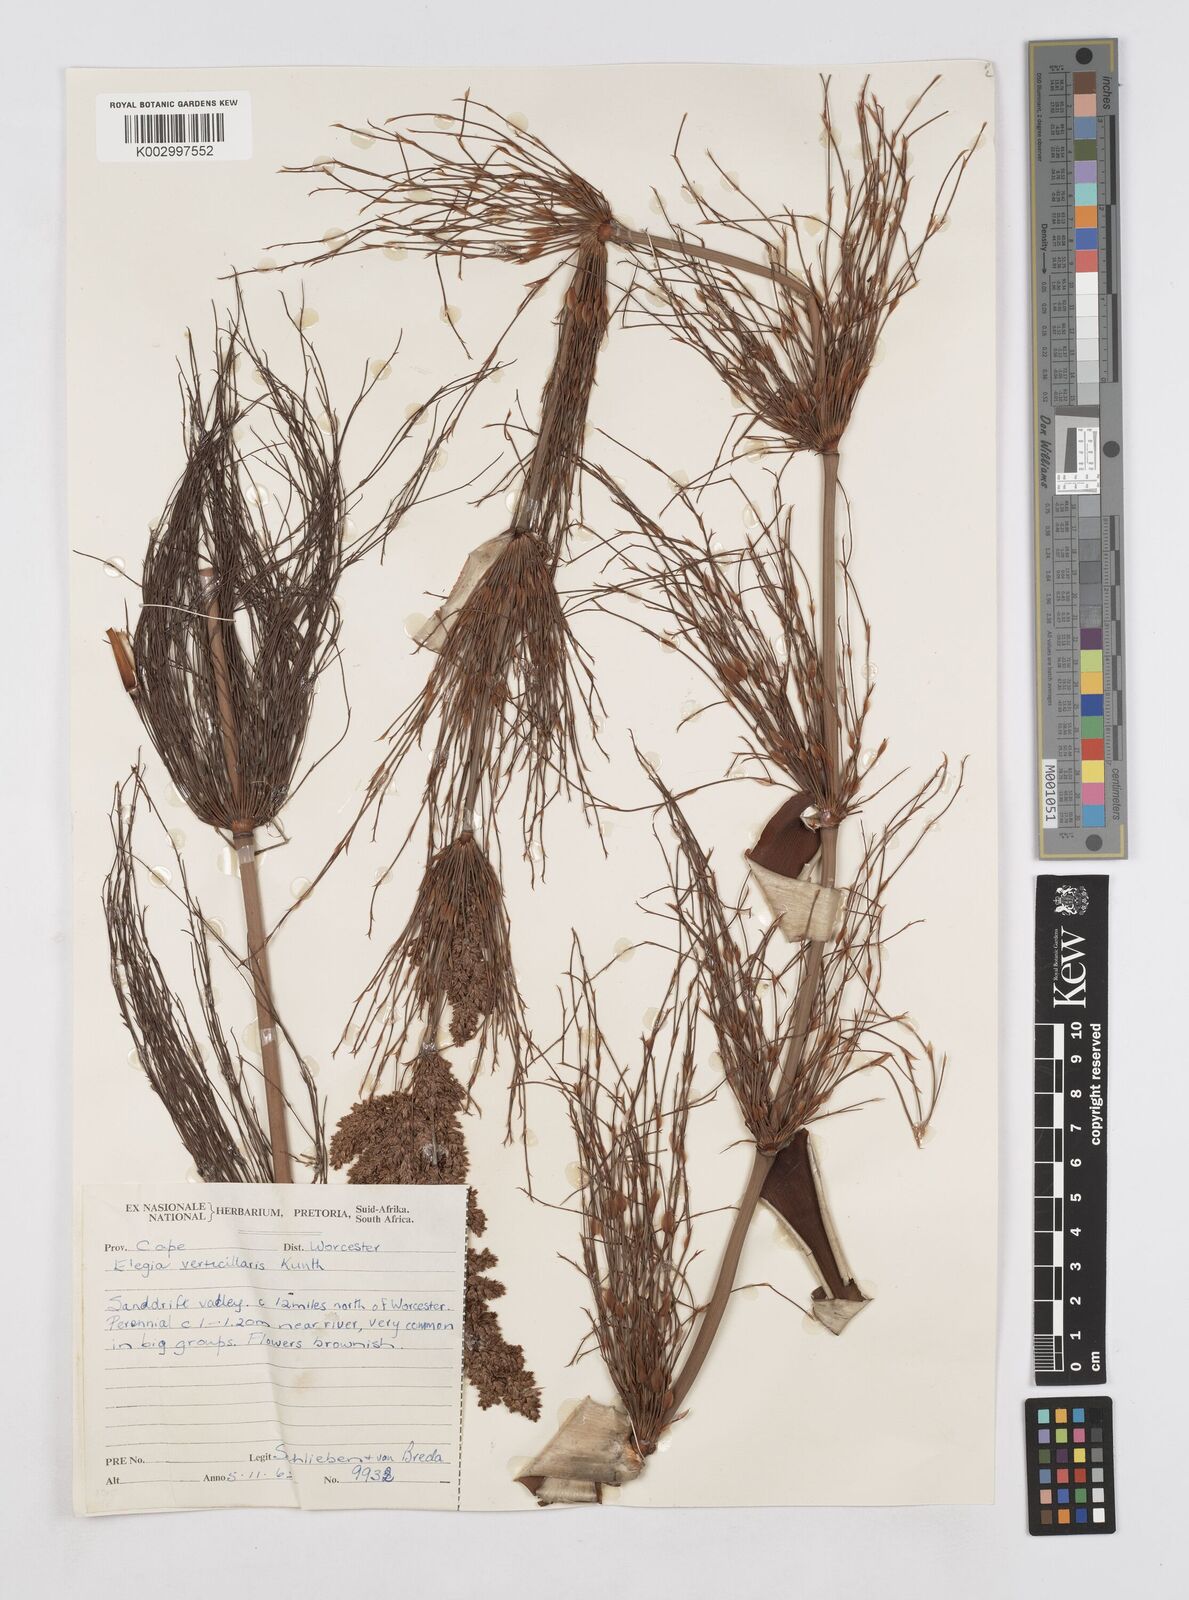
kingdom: Plantae
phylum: Tracheophyta
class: Liliopsida
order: Poales
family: Restionaceae
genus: Elegia
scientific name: Elegia capensis
